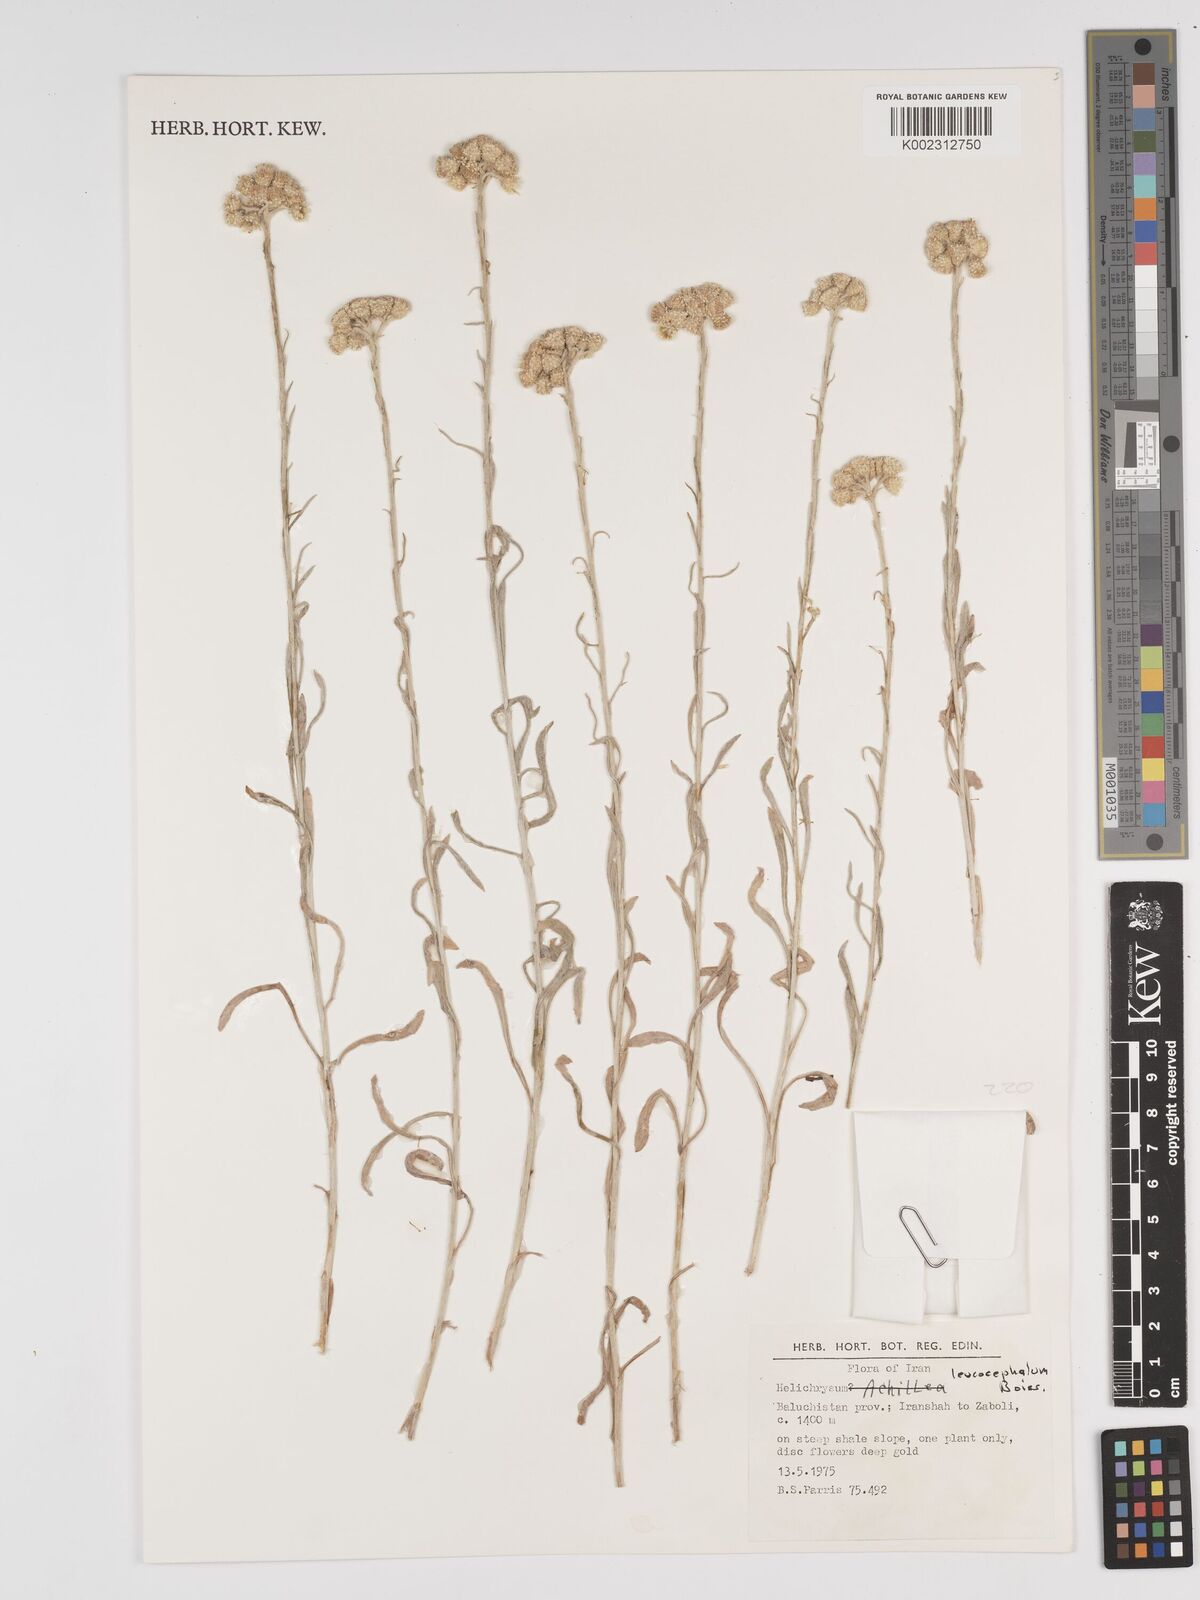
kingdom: Plantae
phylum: Tracheophyta
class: Magnoliopsida
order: Asterales
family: Asteraceae
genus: Helichrysum
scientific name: Helichrysum leucocephalum
